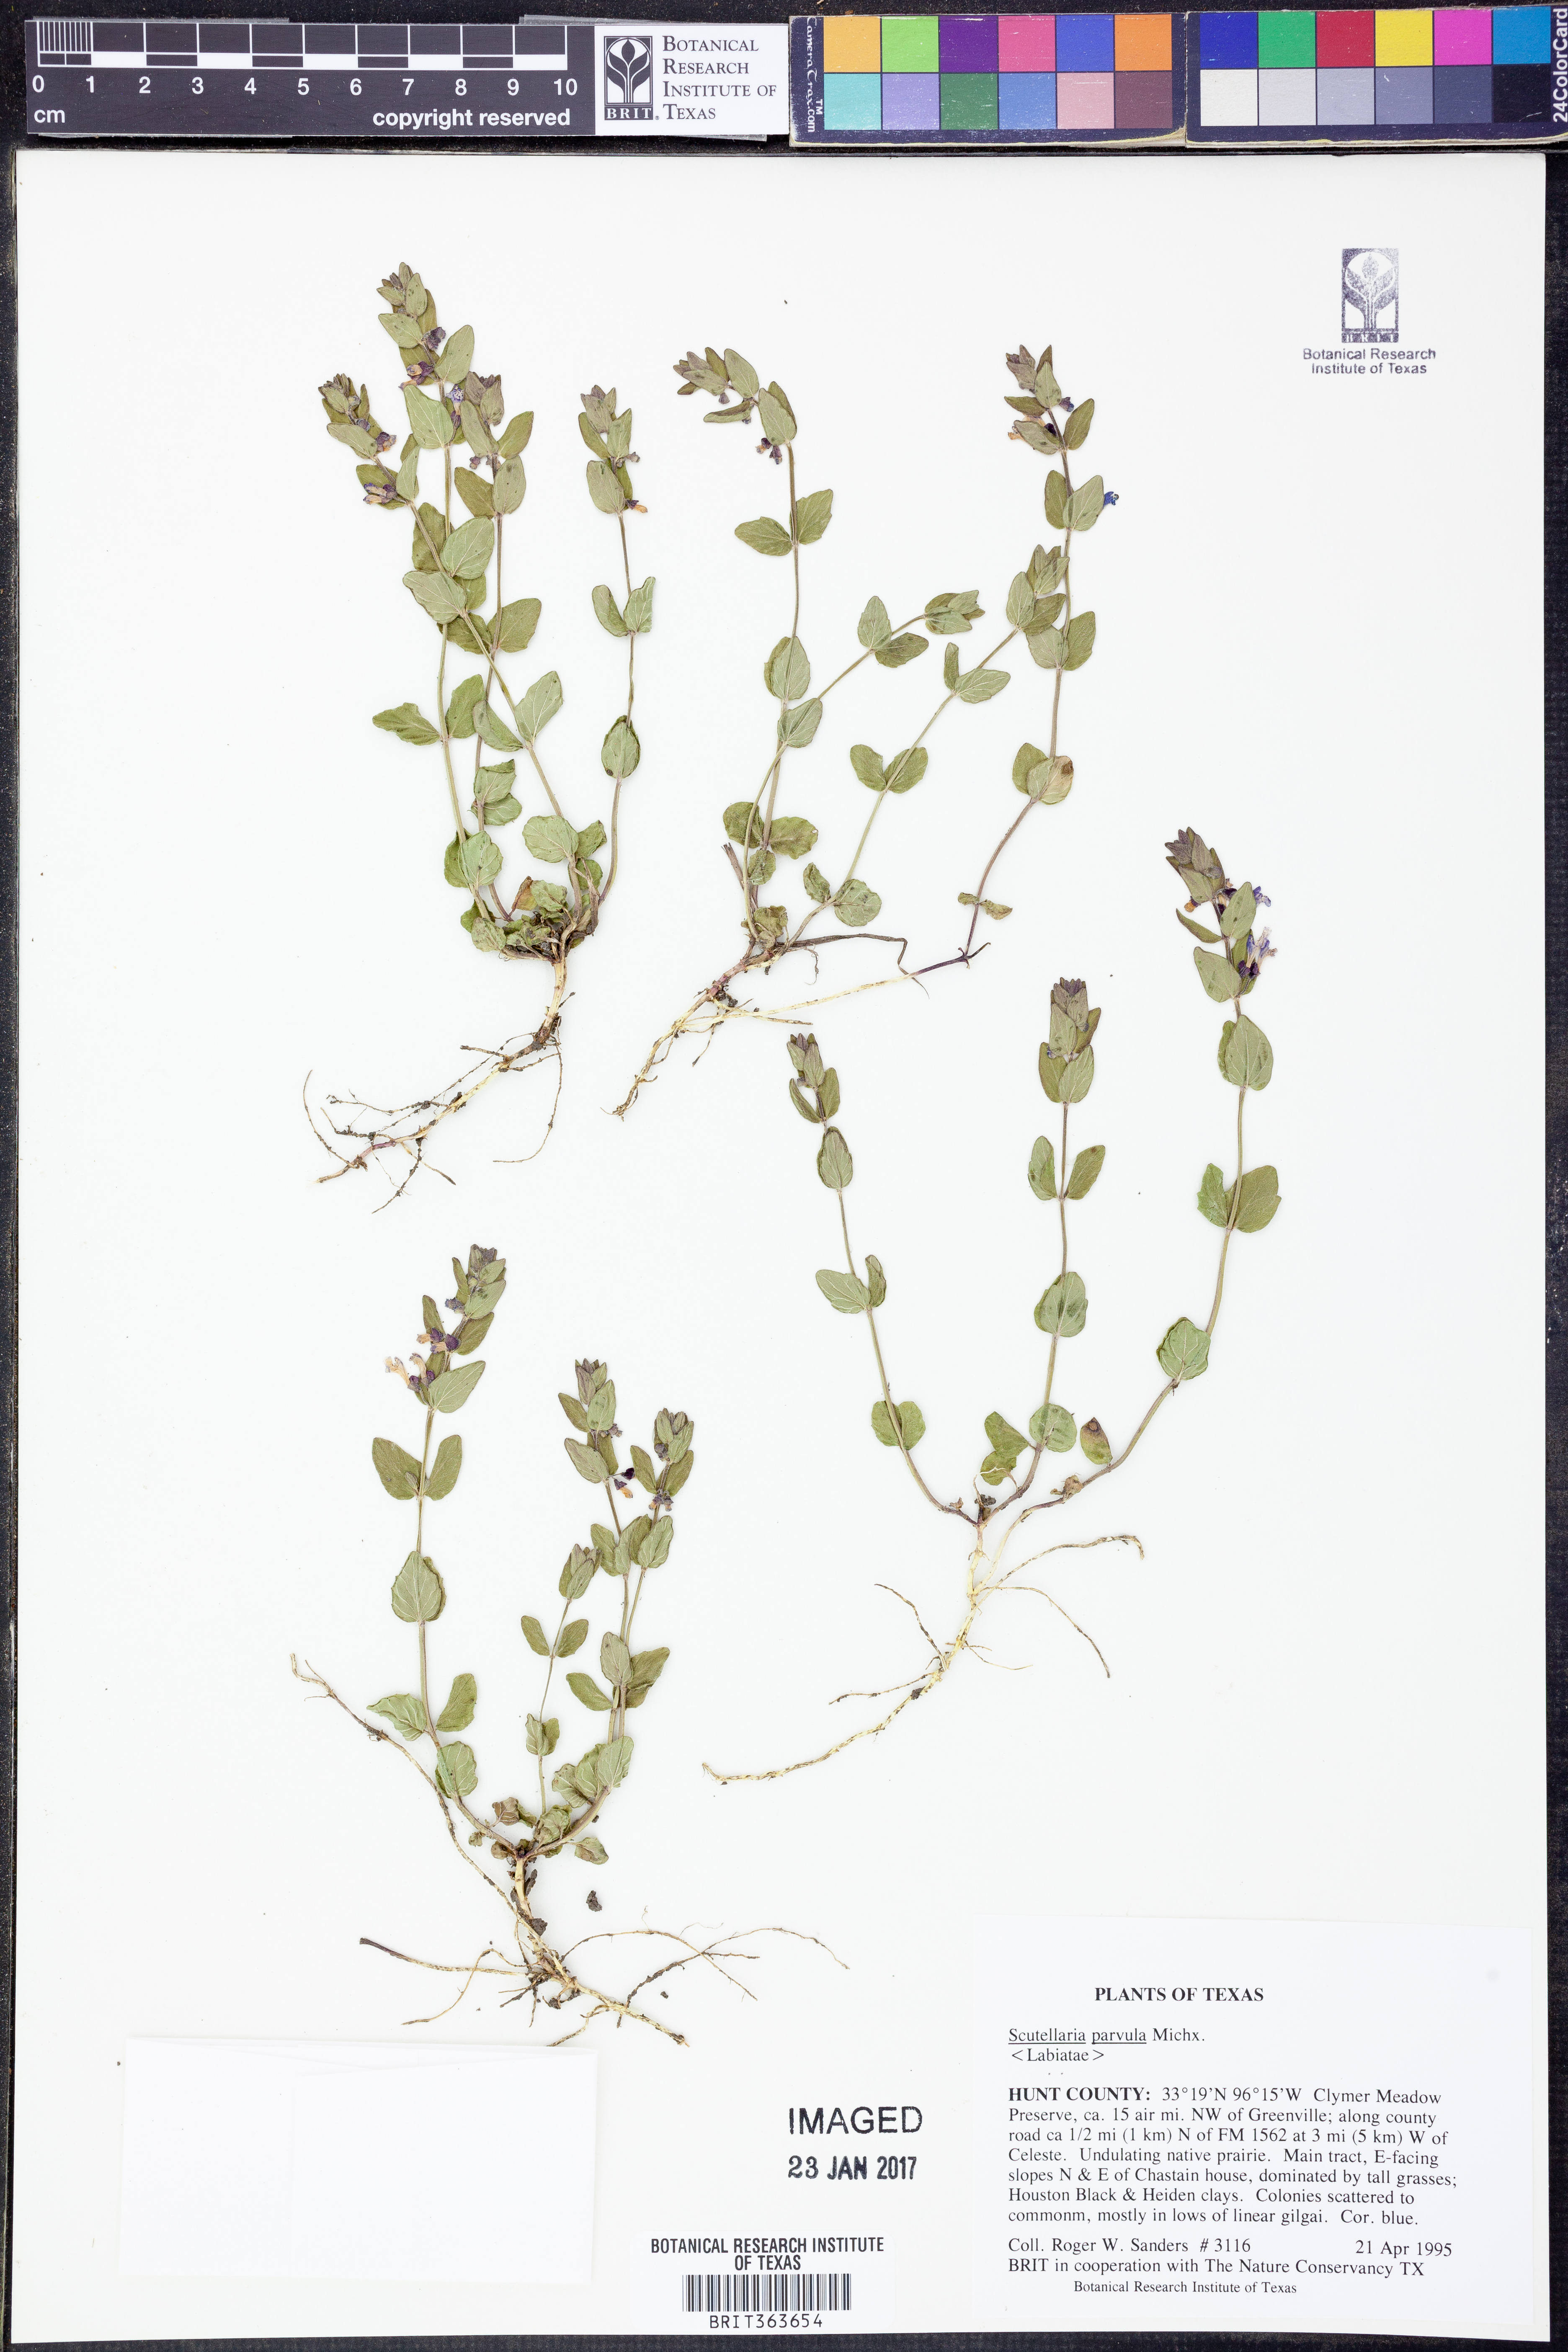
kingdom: Plantae
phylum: Tracheophyta
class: Magnoliopsida
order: Lamiales
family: Lamiaceae
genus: Scutellaria
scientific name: Scutellaria parvula
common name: Little scullcap
